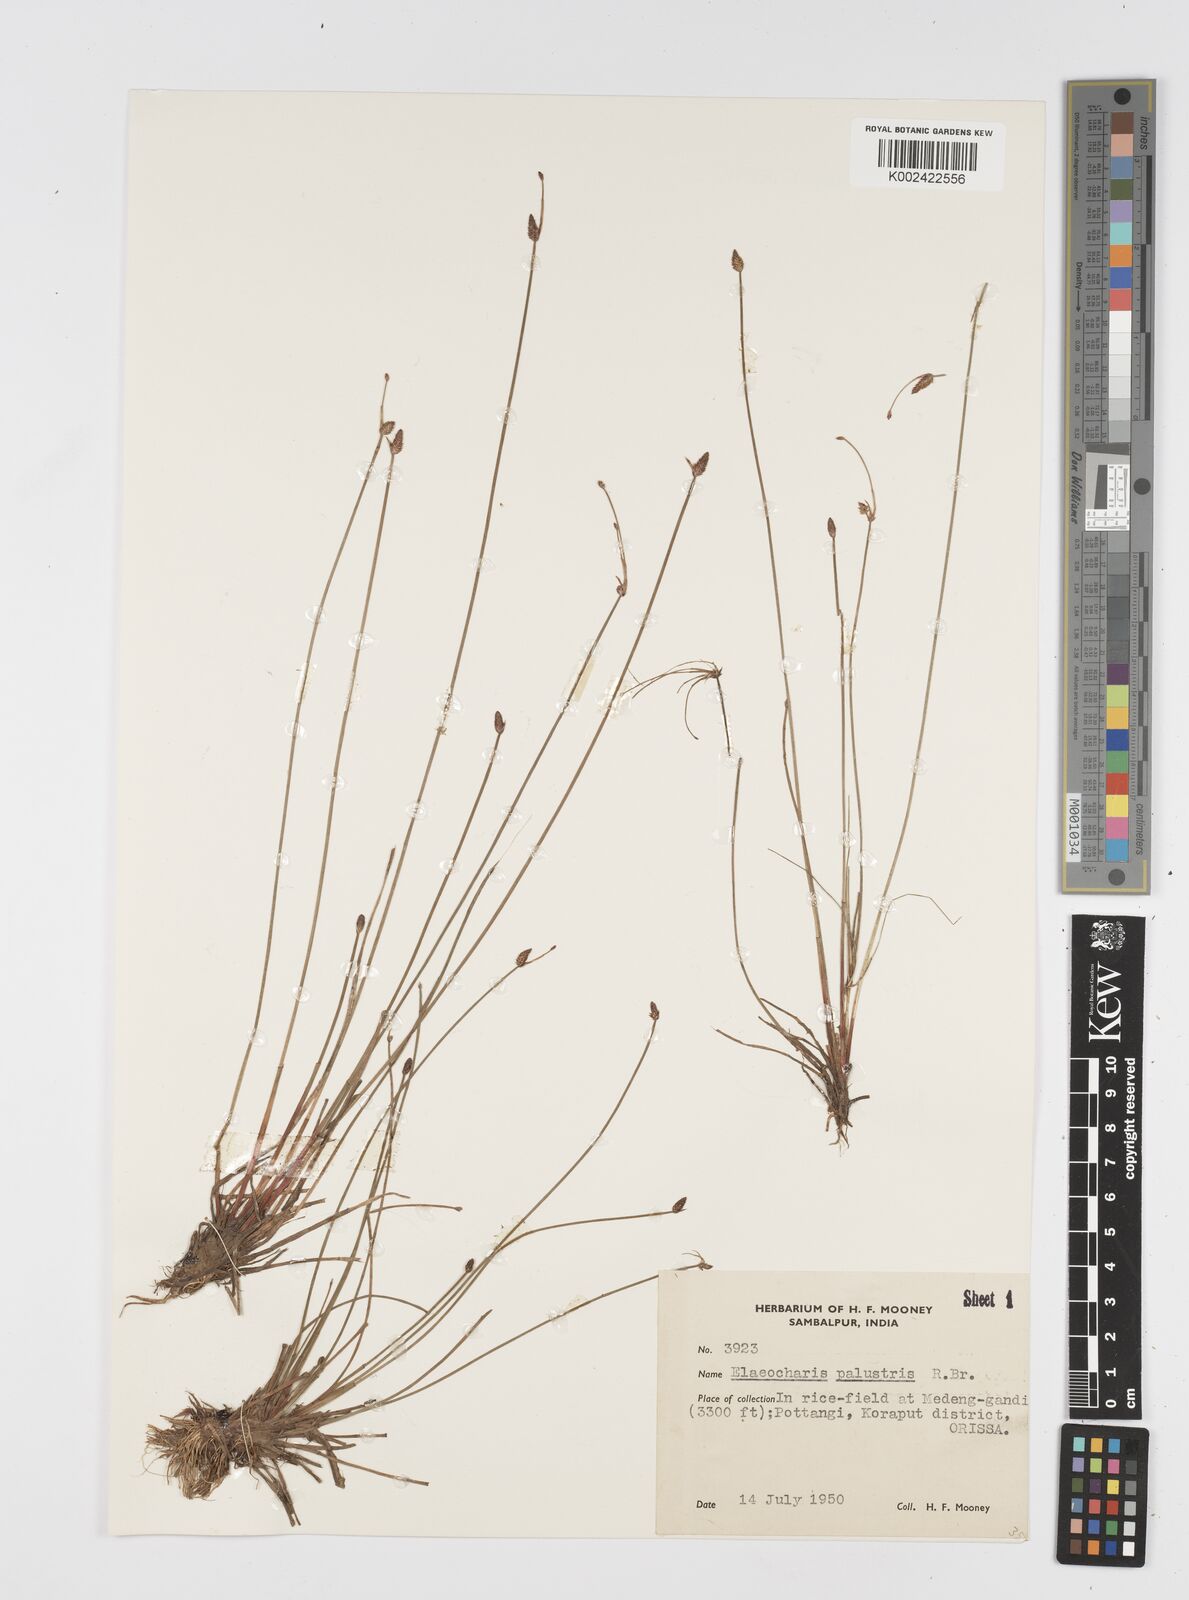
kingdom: Plantae
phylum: Tracheophyta
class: Liliopsida
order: Poales
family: Cyperaceae
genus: Eleocharis
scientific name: Eleocharis palustris
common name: Common spike-rush
